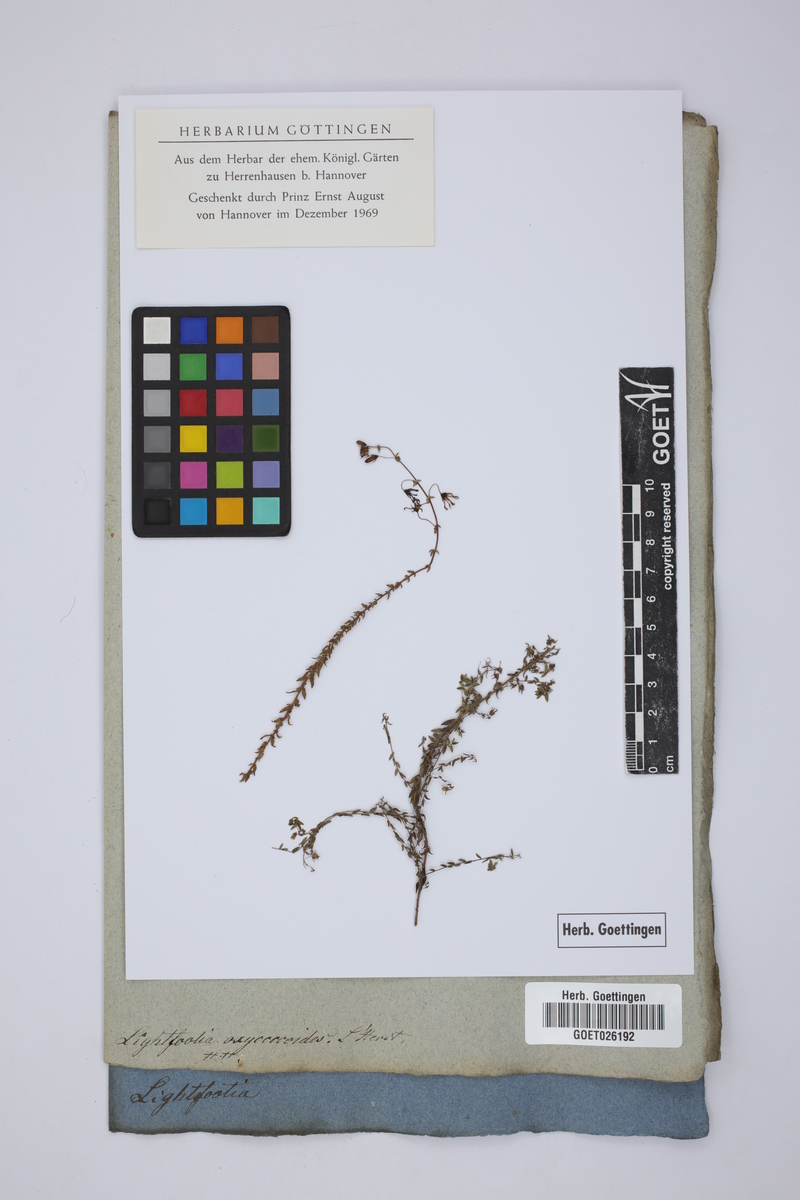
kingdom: Plantae
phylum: Tracheophyta
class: Magnoliopsida
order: Asterales
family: Campanulaceae
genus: Wahlenbergia
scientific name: Wahlenbergia parvifolia
